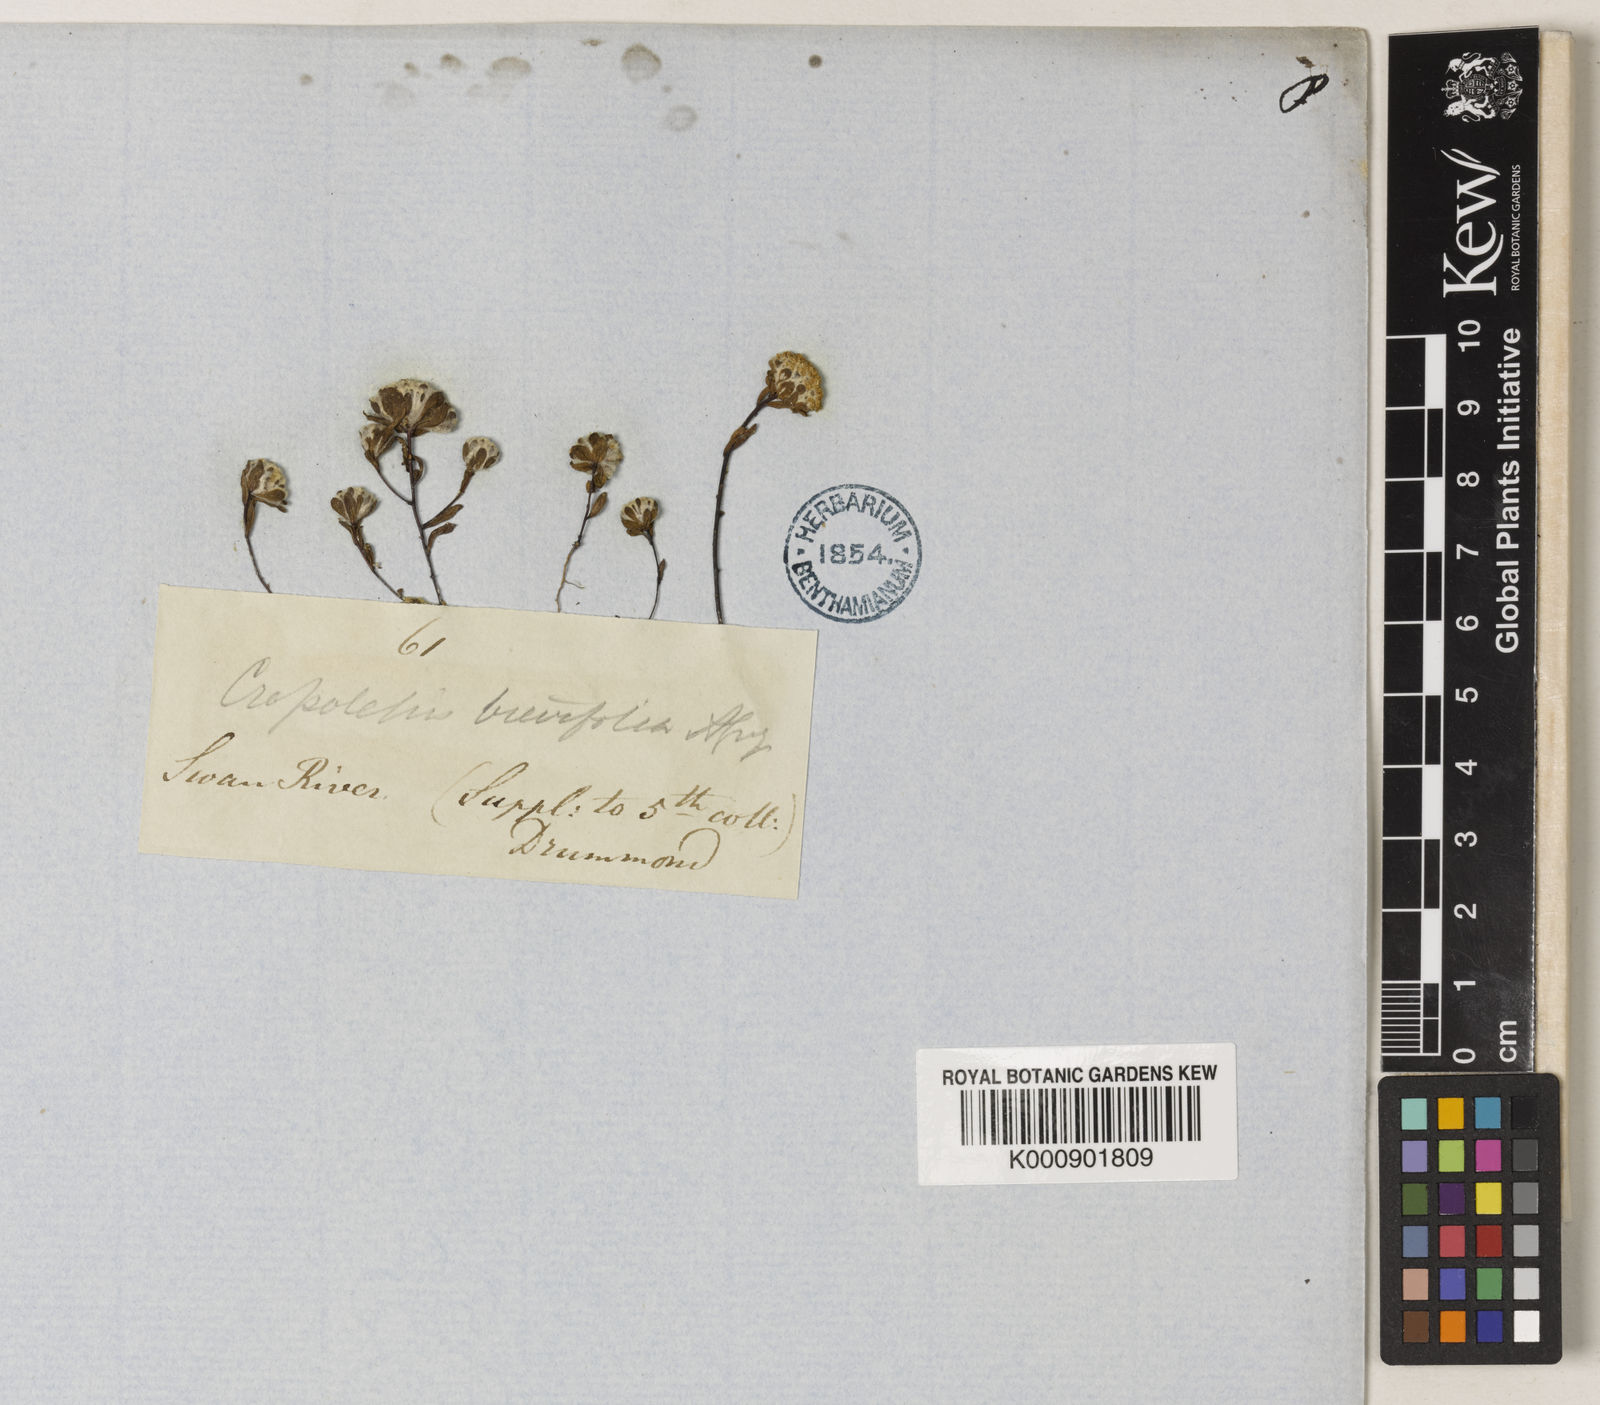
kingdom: Plantae
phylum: Tracheophyta
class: Magnoliopsida
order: Asterales
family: Asteraceae
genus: Gnephosis
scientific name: Gnephosis brevifolia
